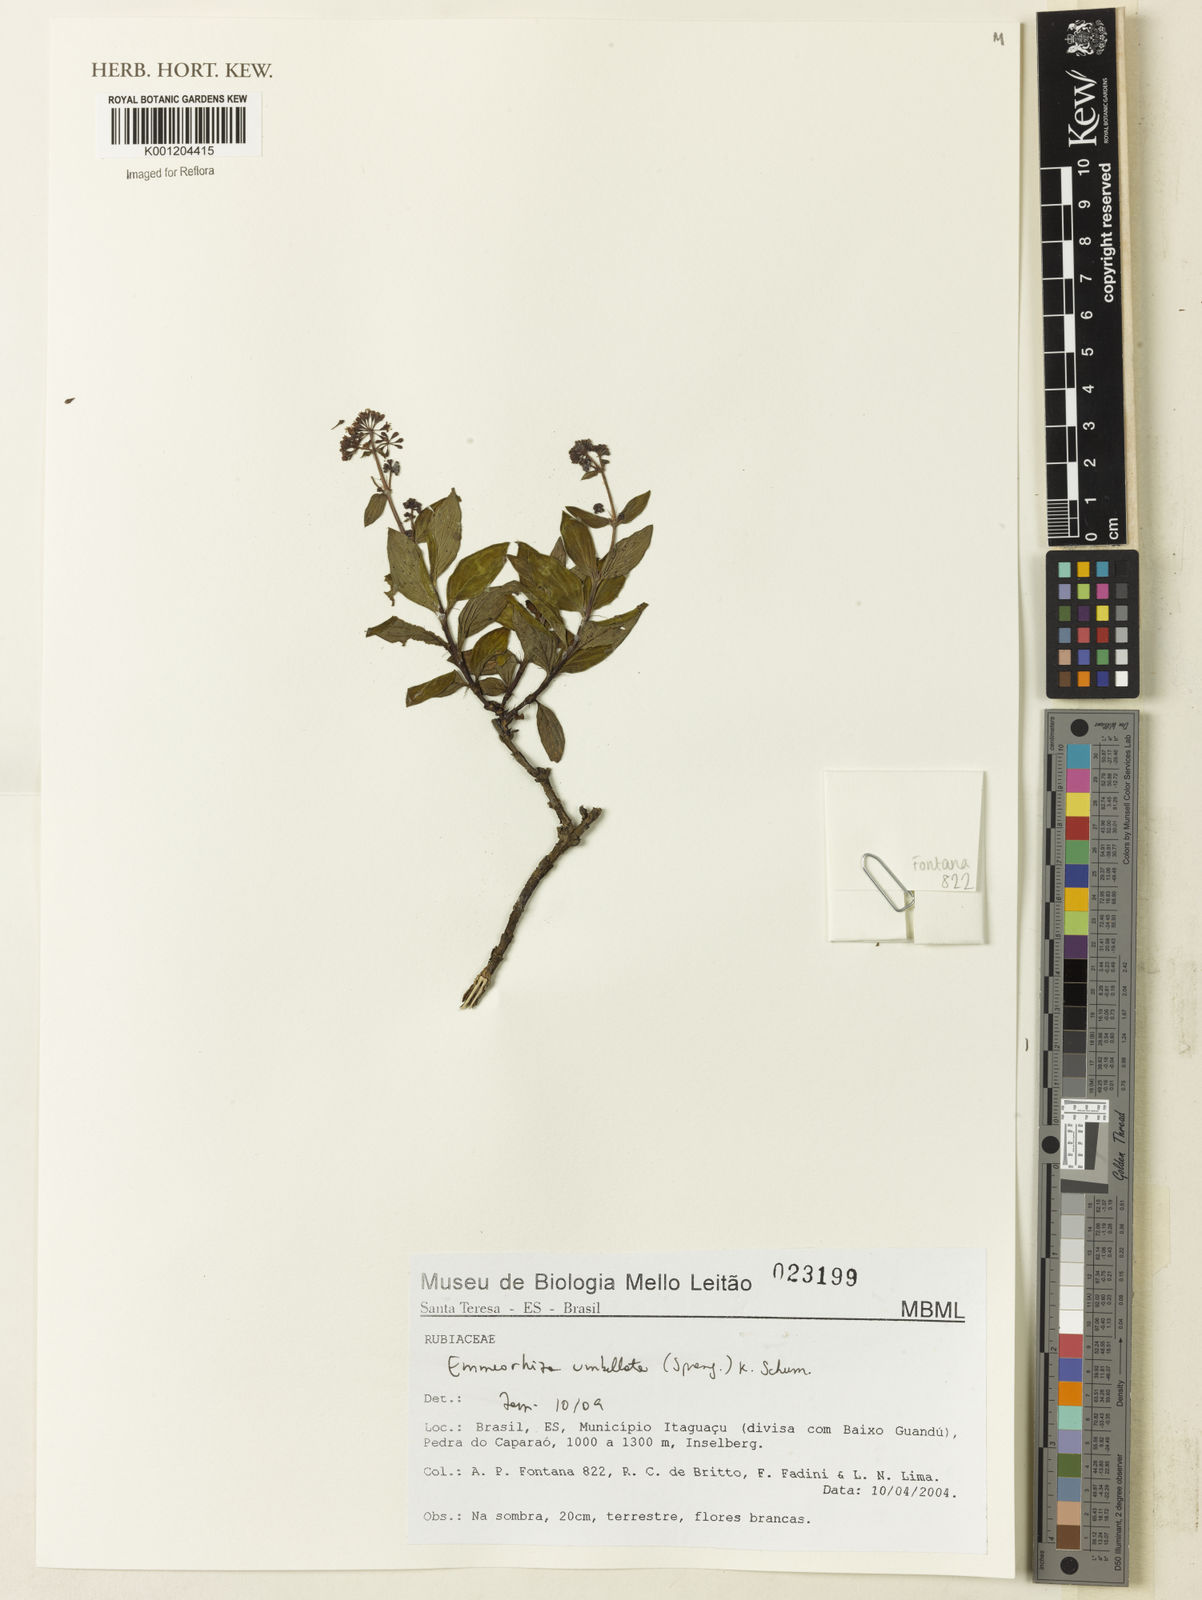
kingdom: Plantae
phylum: Tracheophyta
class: Magnoliopsida
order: Gentianales
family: Rubiaceae
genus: Emmeorhiza
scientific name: Emmeorhiza umbellata
